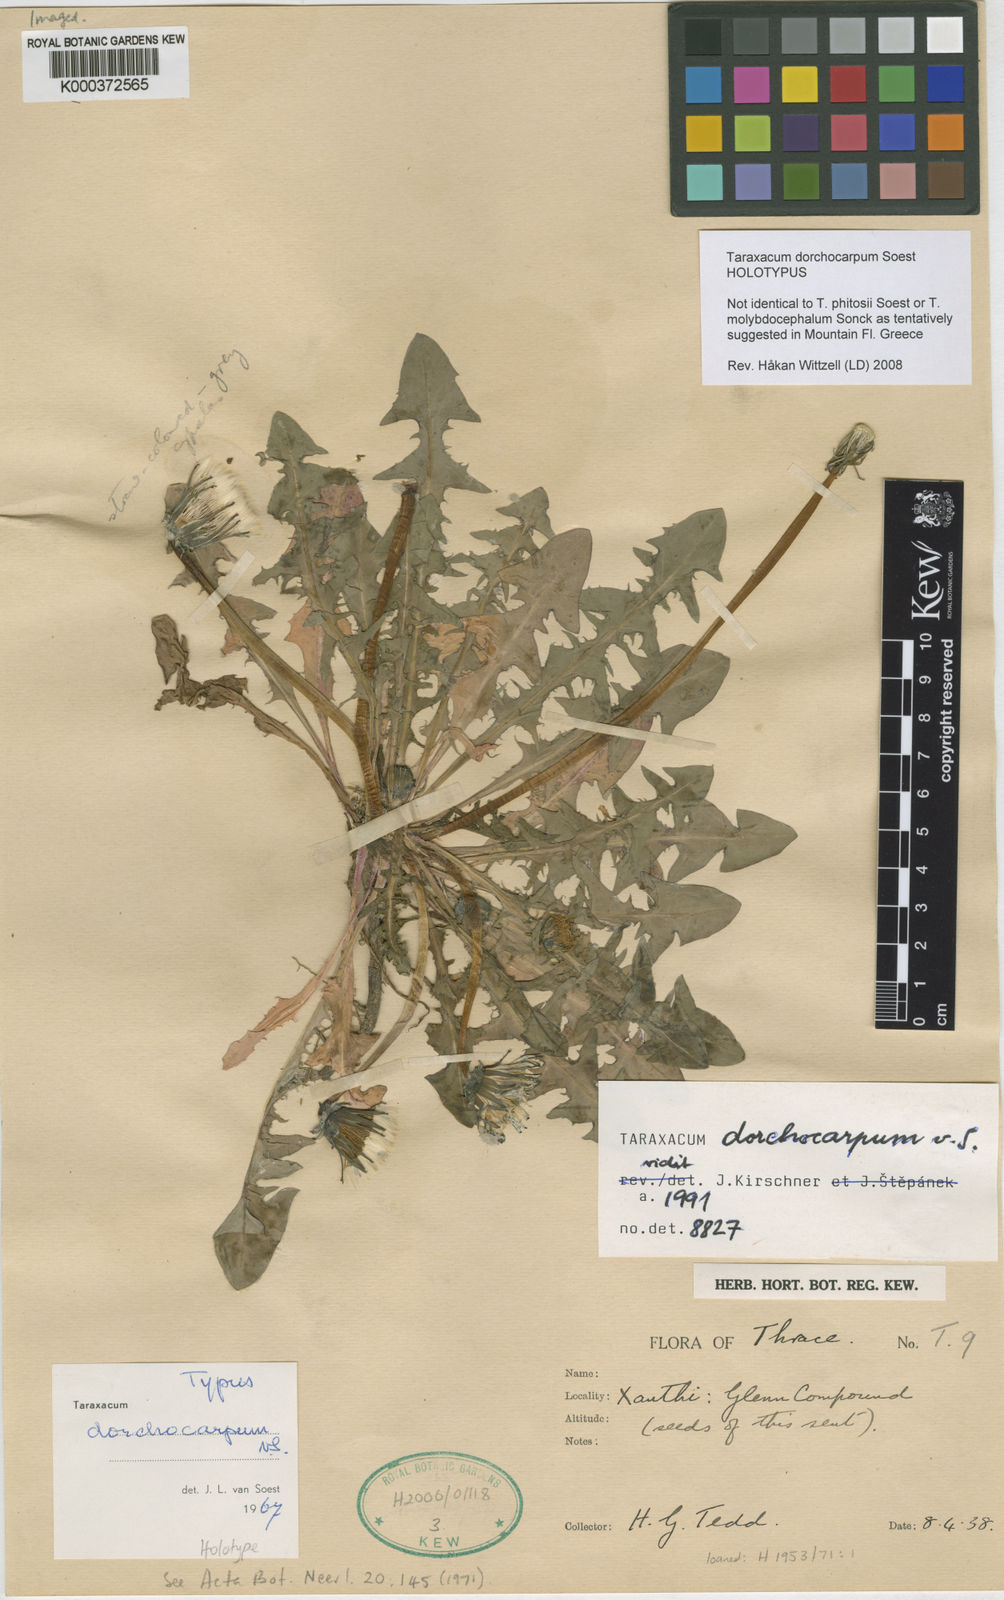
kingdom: Plantae
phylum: Tracheophyta
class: Magnoliopsida
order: Asterales
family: Asteraceae
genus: Taraxacum
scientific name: Taraxacum dorchocarpum
